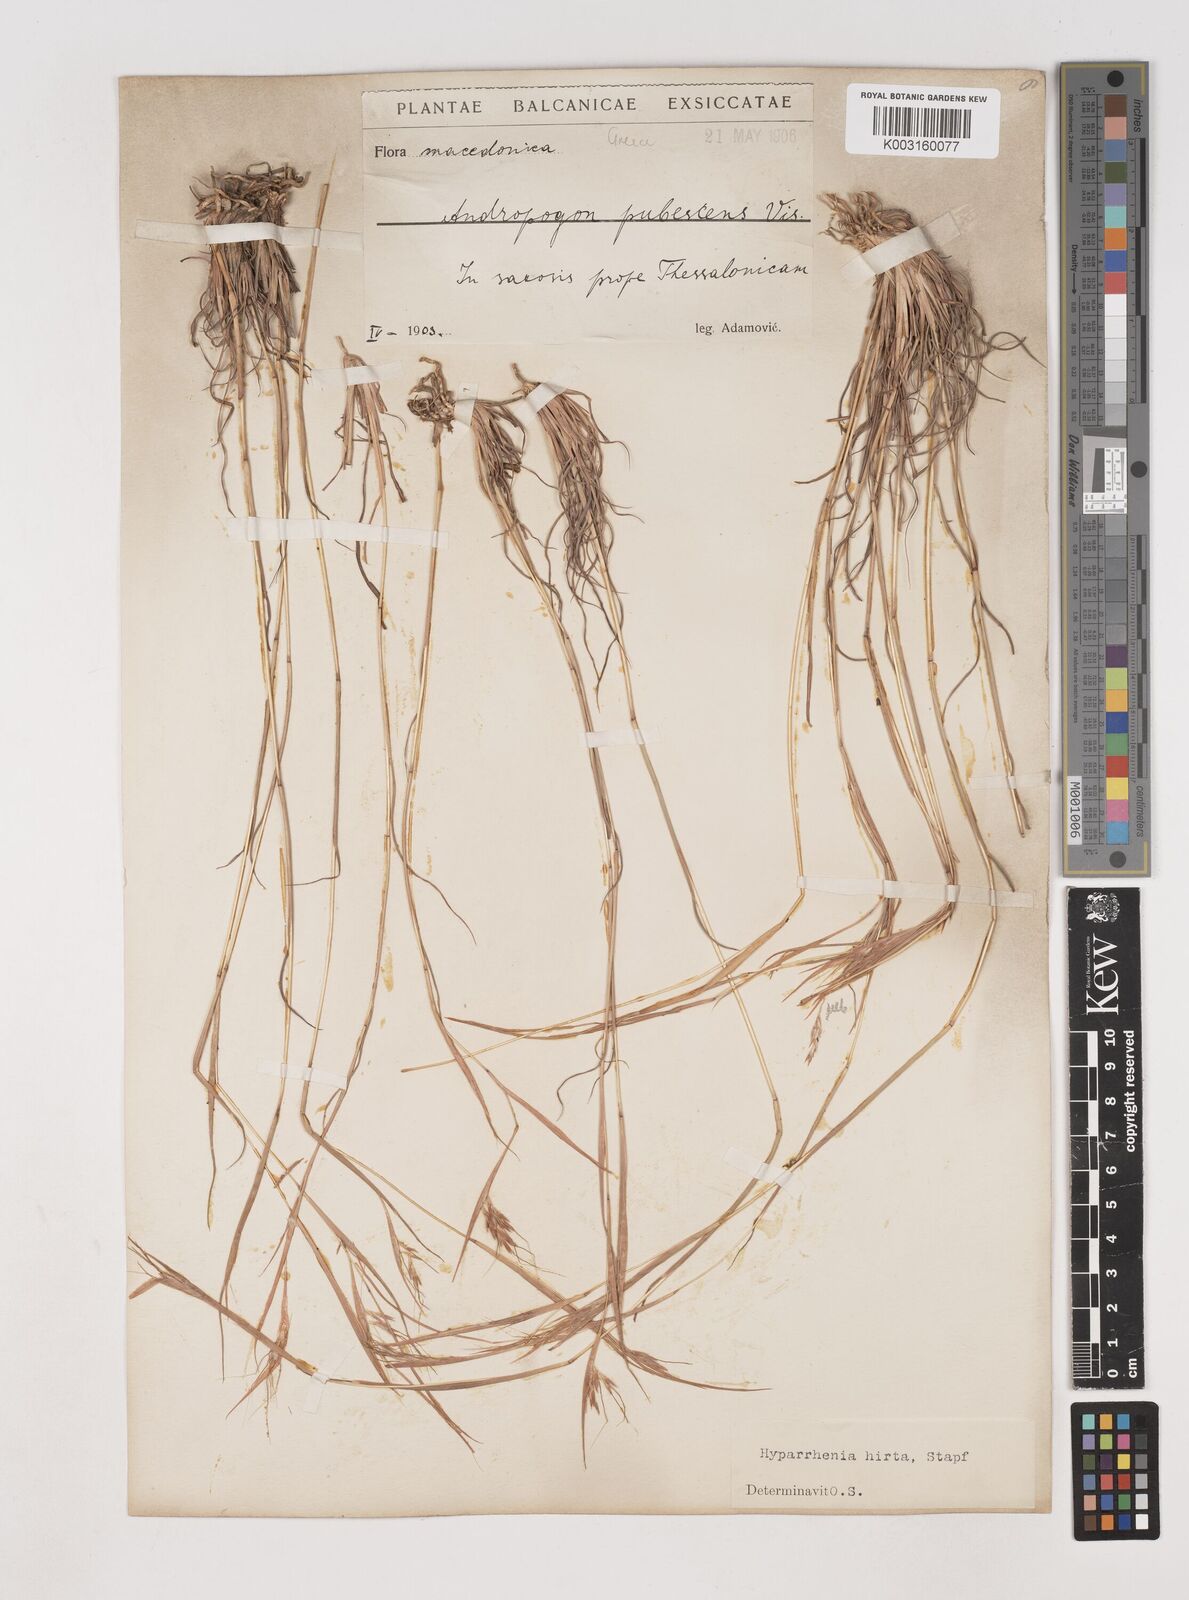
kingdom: Plantae
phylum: Tracheophyta
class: Liliopsida
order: Poales
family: Poaceae
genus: Hyparrhenia
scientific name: Hyparrhenia hirta
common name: Thatching grass
